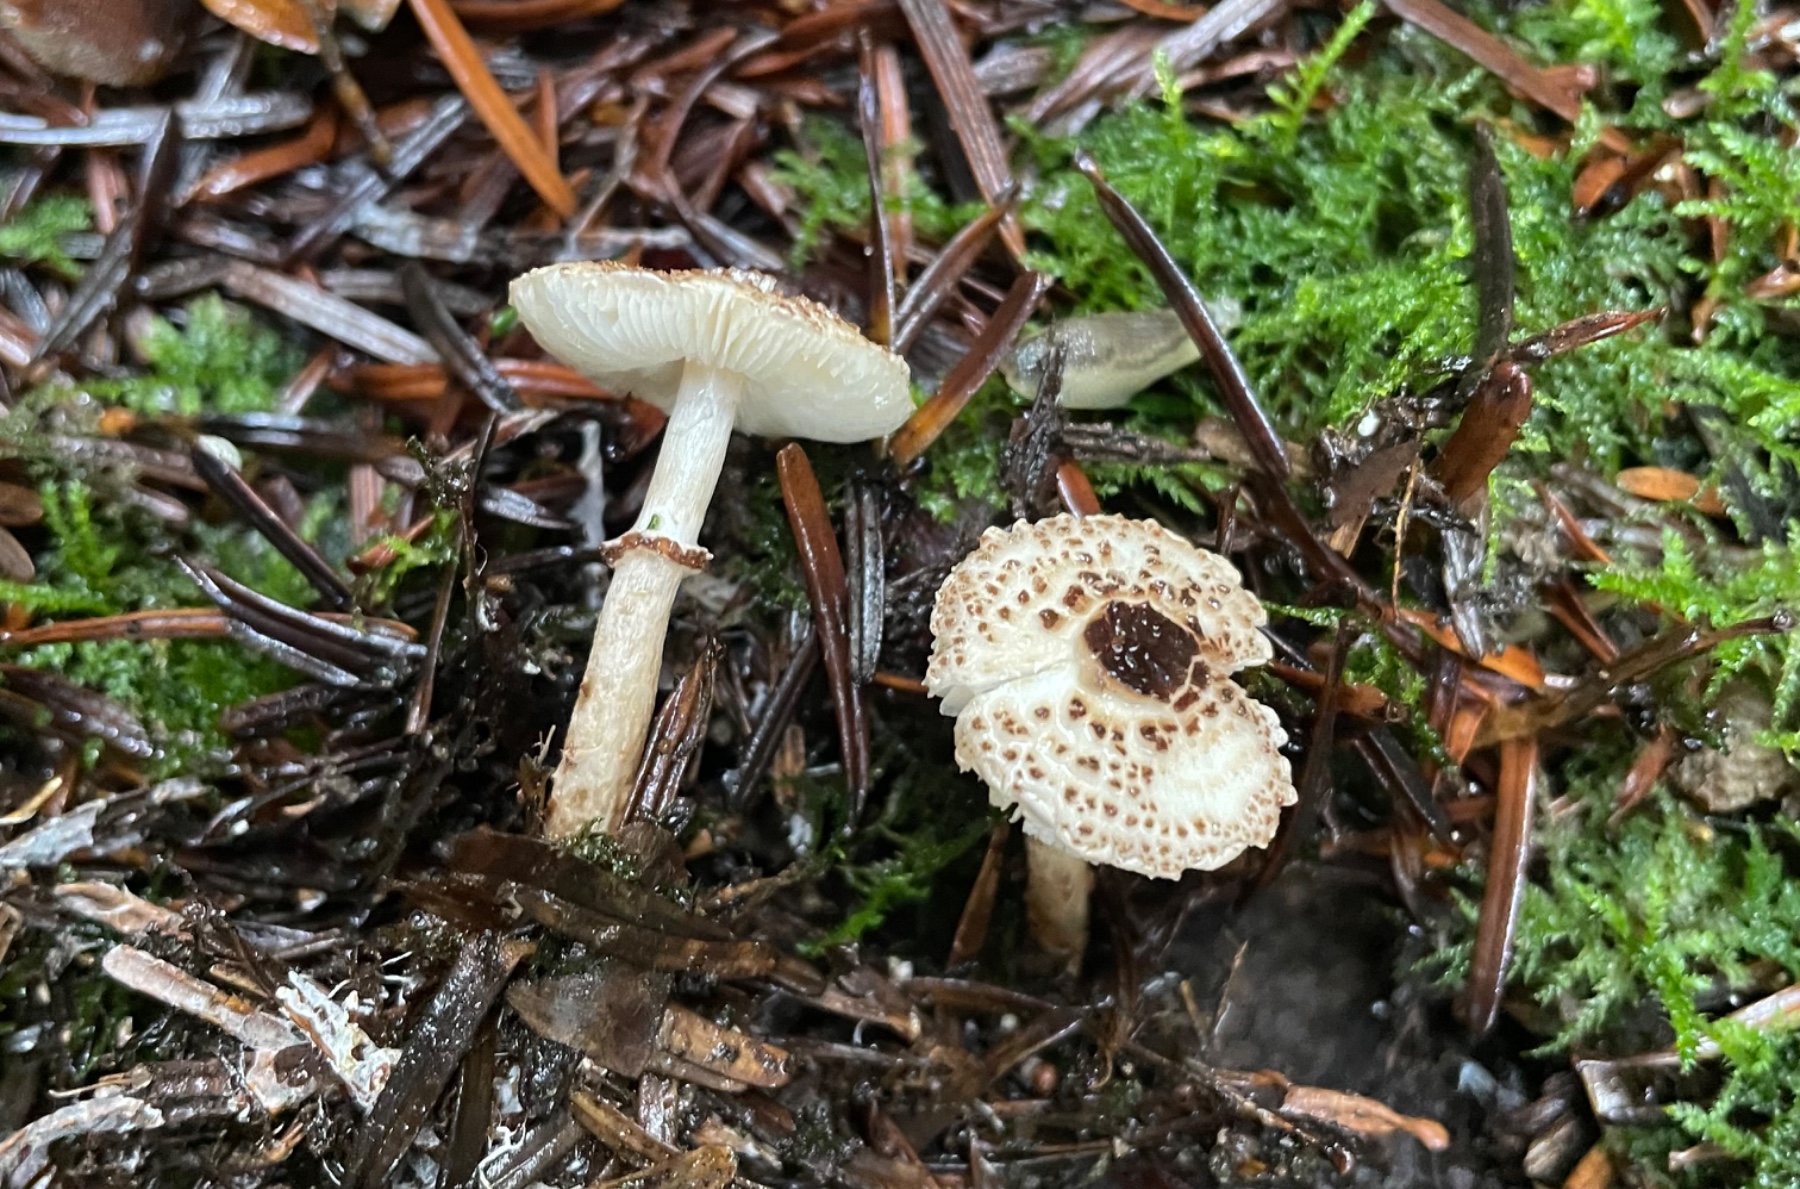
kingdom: Fungi
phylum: Basidiomycota
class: Agaricomycetes
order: Agaricales
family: Agaricaceae
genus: Lepiota
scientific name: Lepiota felina
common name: sortskællet parasolhat
